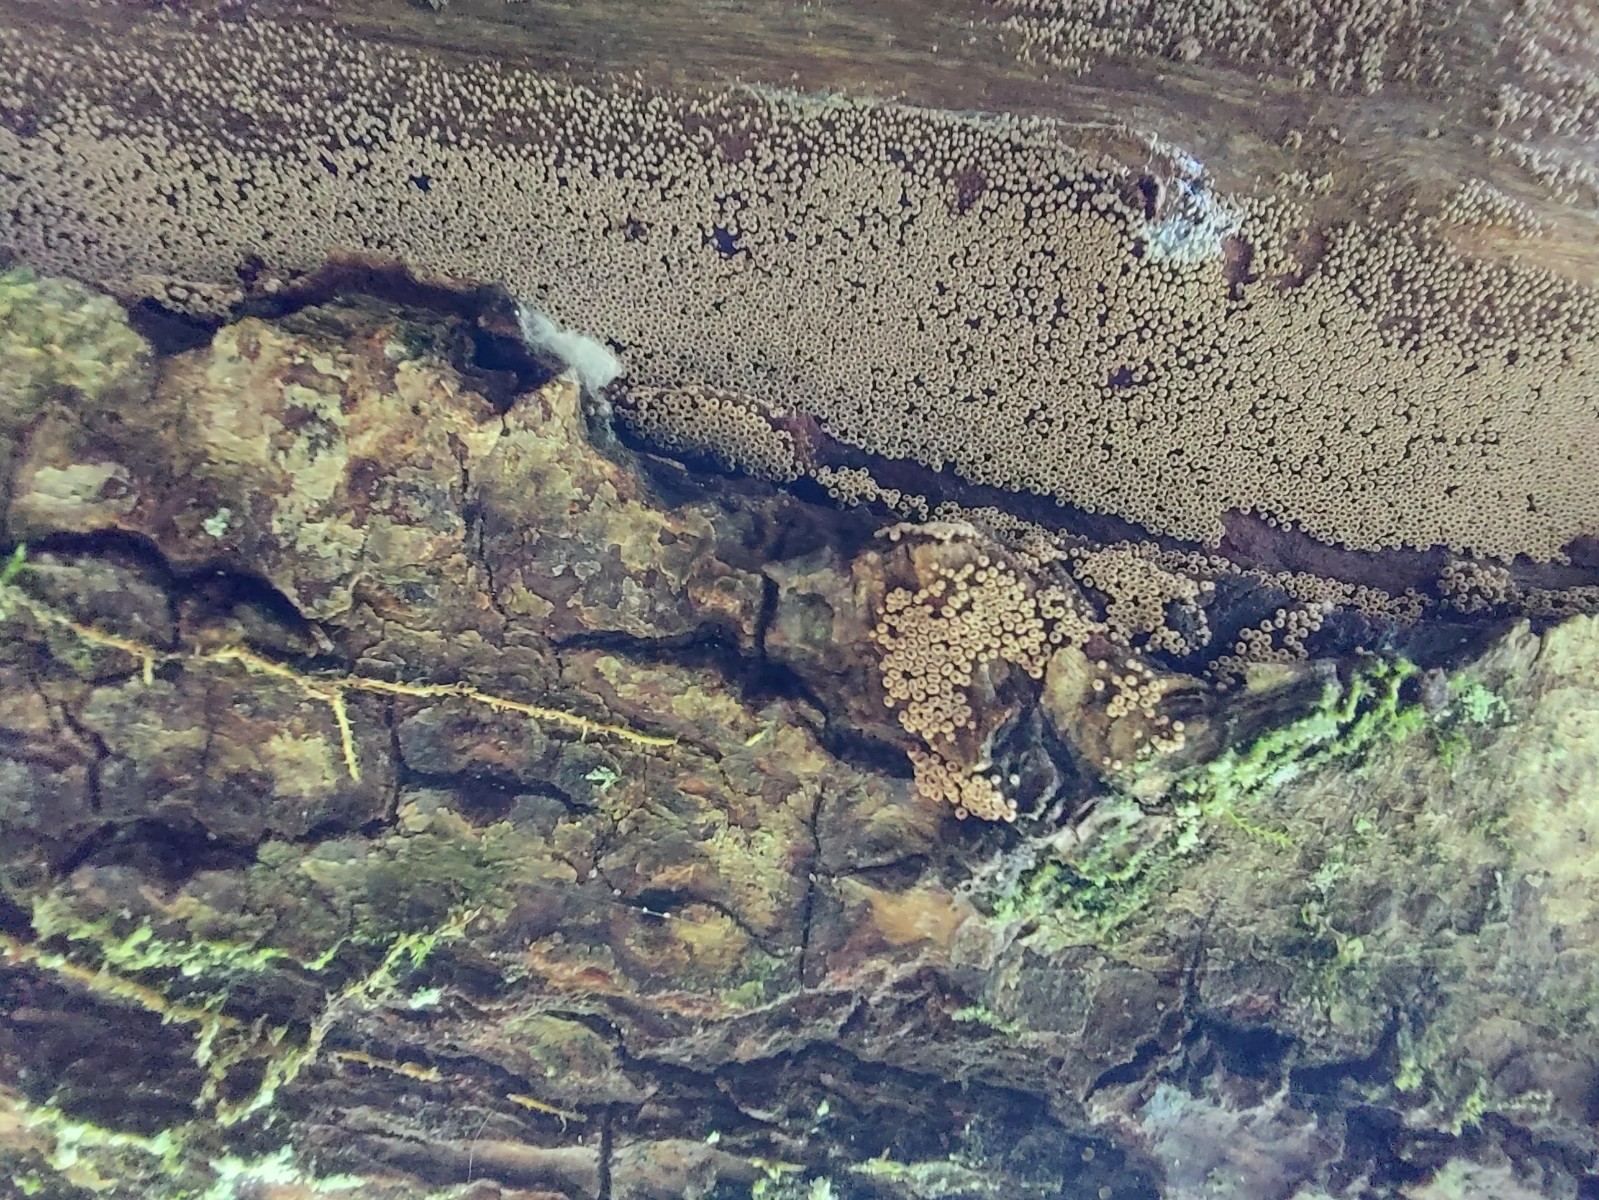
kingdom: Fungi
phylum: Basidiomycota
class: Agaricomycetes
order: Agaricales
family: Niaceae
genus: Merismodes
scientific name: Merismodes anomala
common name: almindelig læderskål
